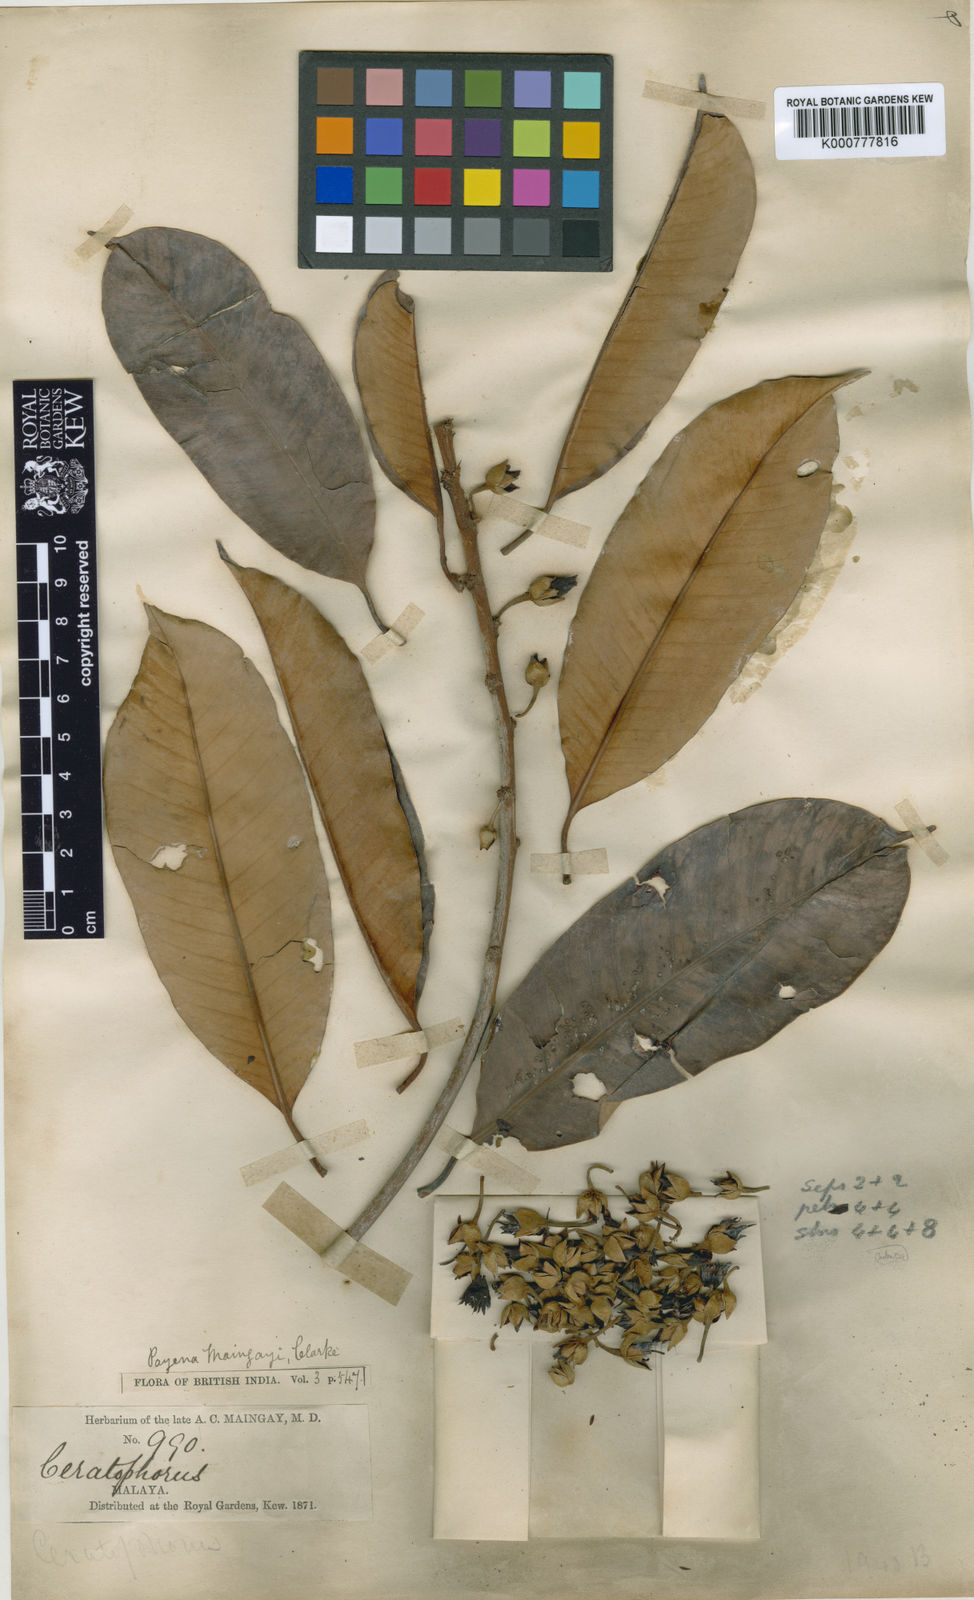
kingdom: Plantae
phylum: Tracheophyta
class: Magnoliopsida
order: Ericales
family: Sapotaceae
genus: Payena
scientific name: Payena maingayi
